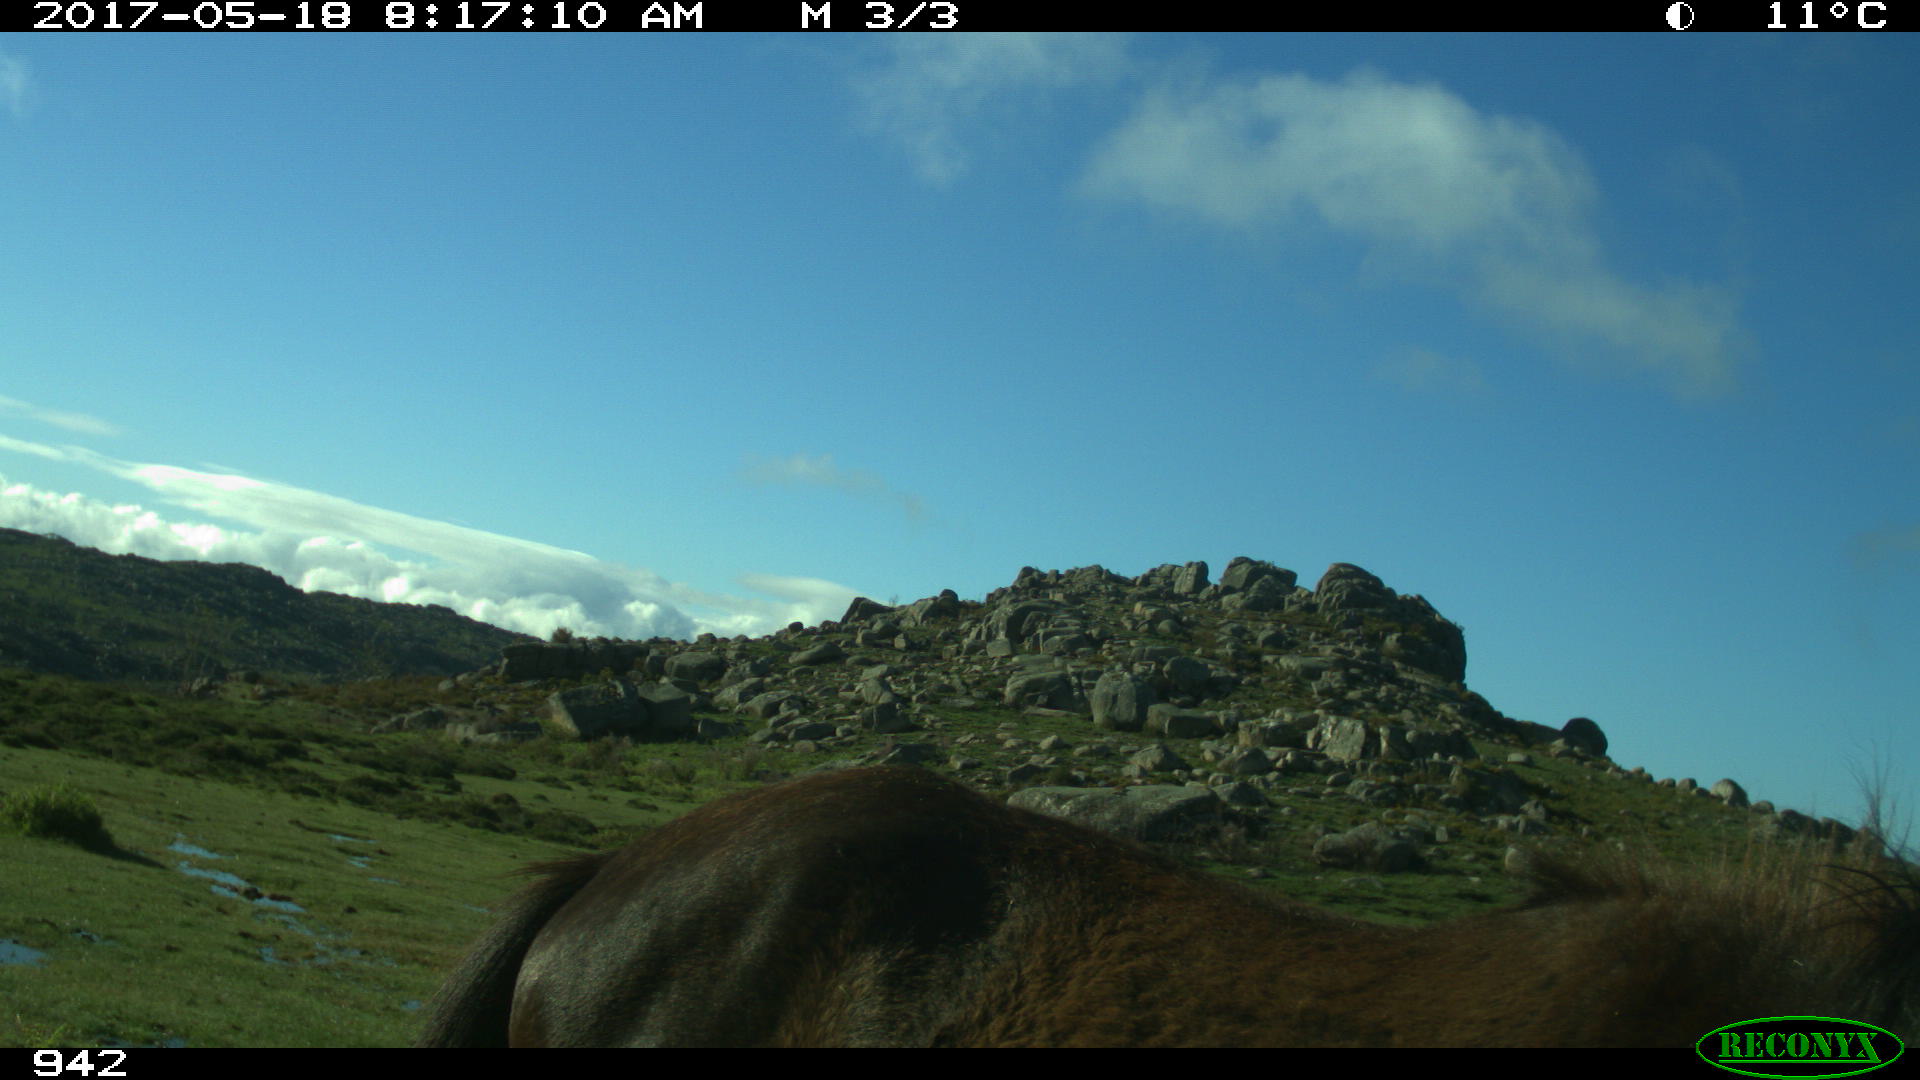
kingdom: Animalia
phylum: Chordata
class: Mammalia
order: Perissodactyla
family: Equidae
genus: Equus
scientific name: Equus caballus
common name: Horse
